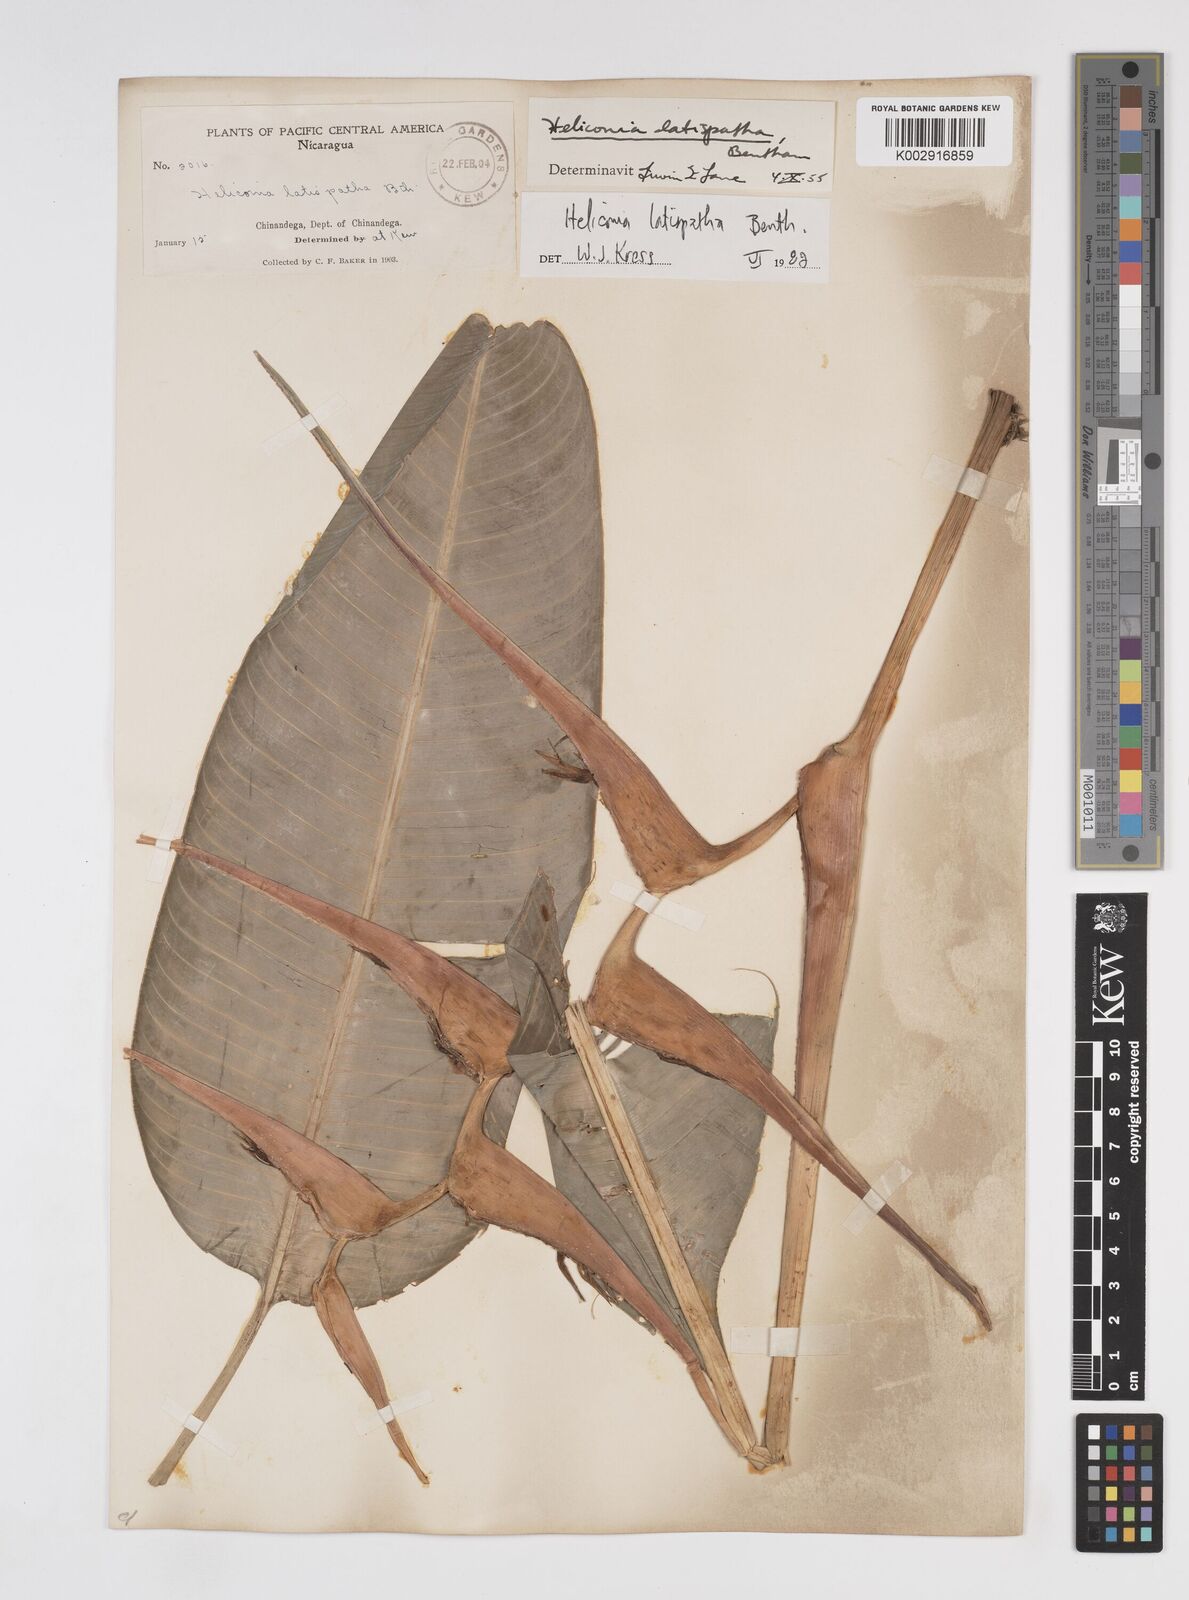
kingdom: Plantae
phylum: Tracheophyta
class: Liliopsida
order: Zingiberales
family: Heliconiaceae
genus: Heliconia
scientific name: Heliconia latispatha
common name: Expanded lobsterclaw
